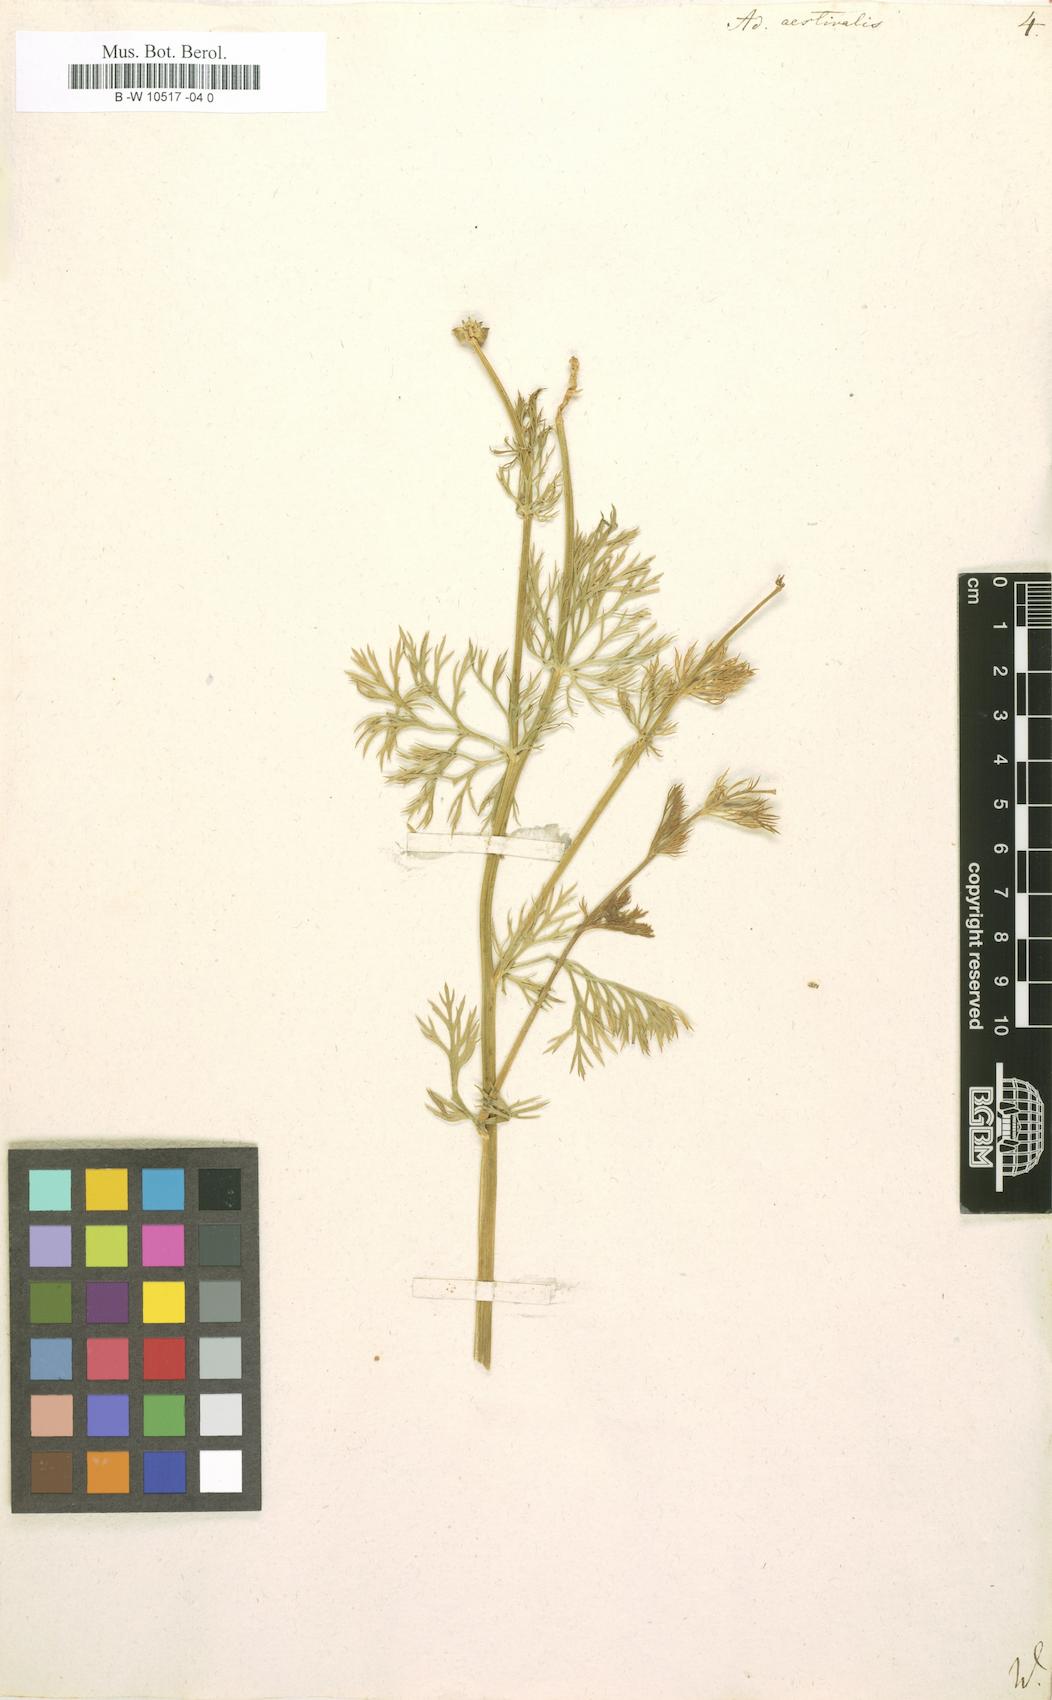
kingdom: Plantae
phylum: Tracheophyta
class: Magnoliopsida
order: Ranunculales
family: Ranunculaceae
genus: Adonis
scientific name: Adonis aestivalis
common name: Summer pheasant's-eye
